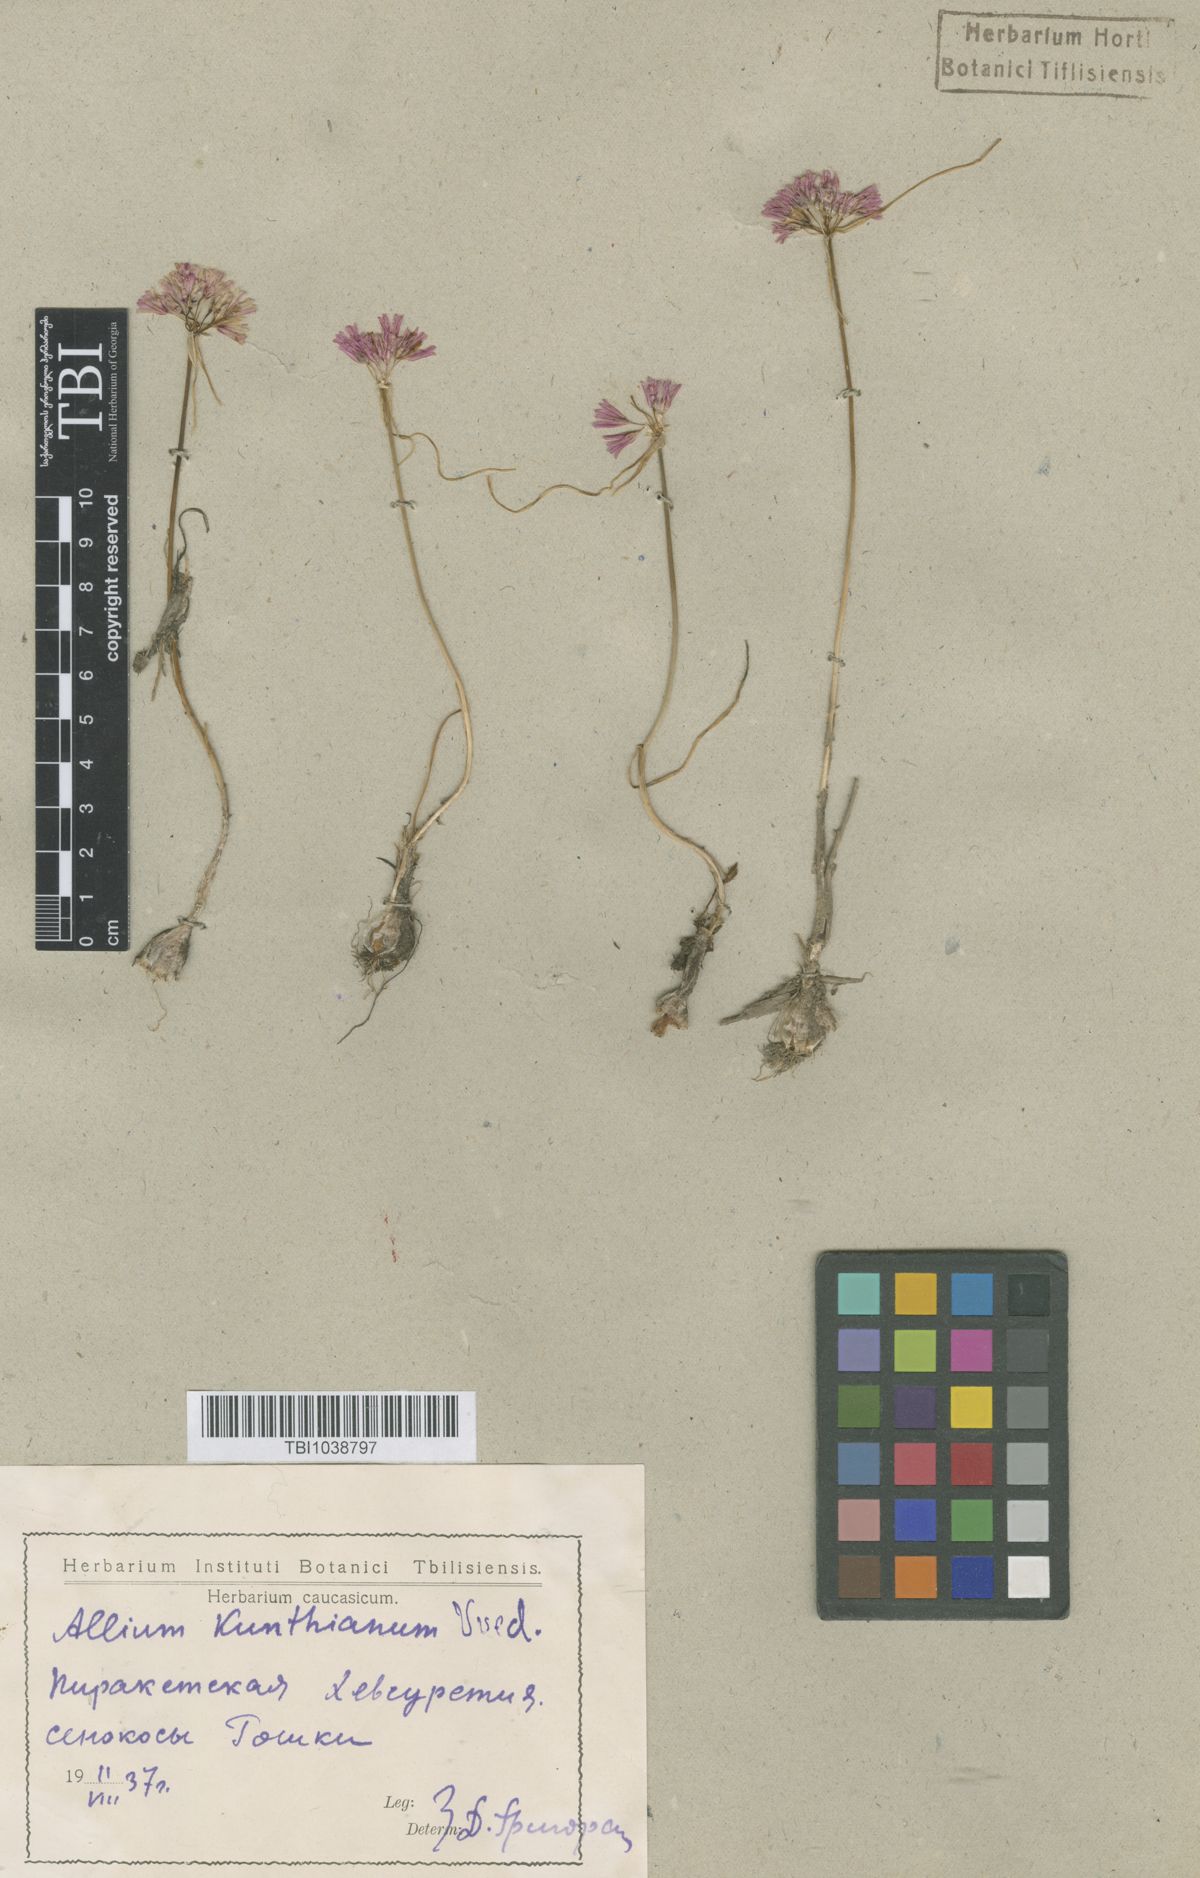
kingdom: Plantae
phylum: Tracheophyta
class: Liliopsida
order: Asparagales
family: Amaryllidaceae
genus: Allium
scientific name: Allium kunthianum
